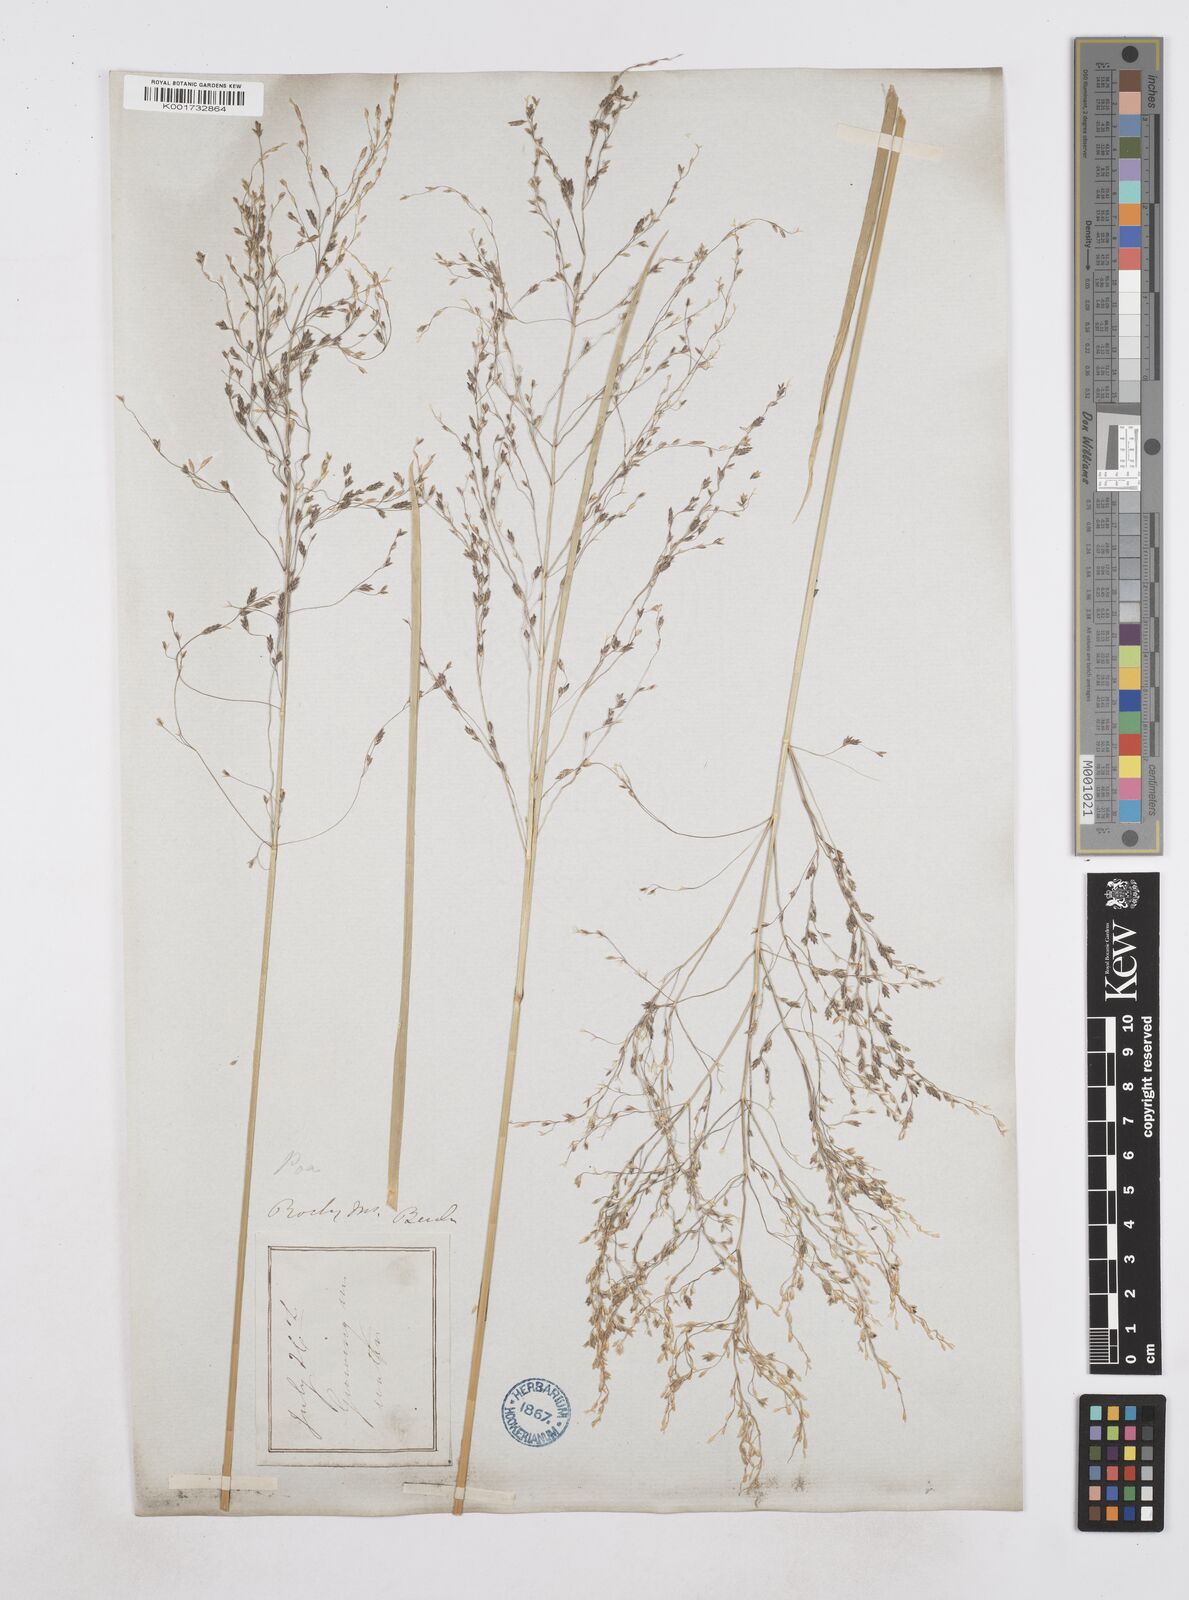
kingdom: Plantae
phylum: Tracheophyta
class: Liliopsida
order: Poales
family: Poaceae
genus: Poa
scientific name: Poa
